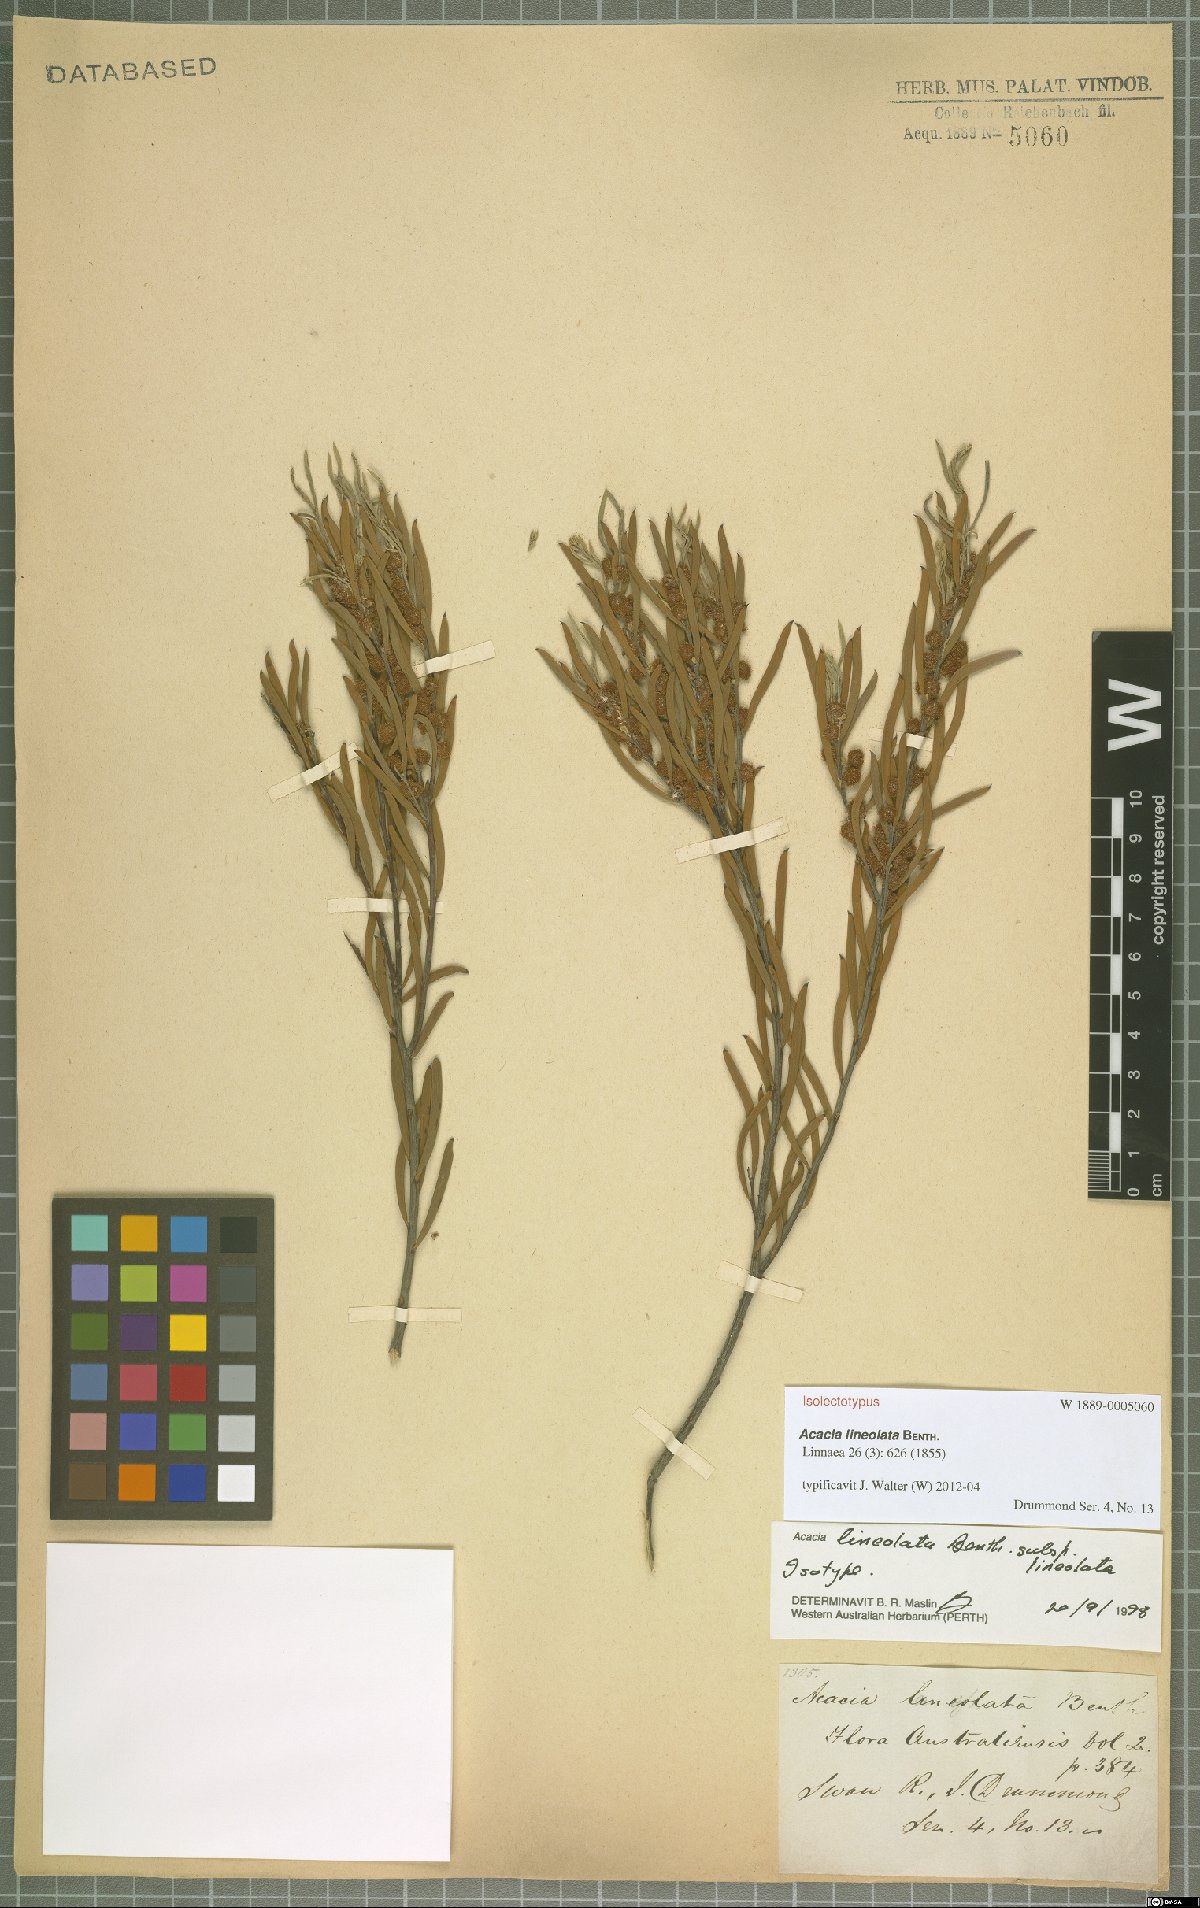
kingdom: Plantae
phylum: Tracheophyta
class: Magnoliopsida
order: Fabales
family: Fabaceae
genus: Acacia
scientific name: Acacia lineolata
